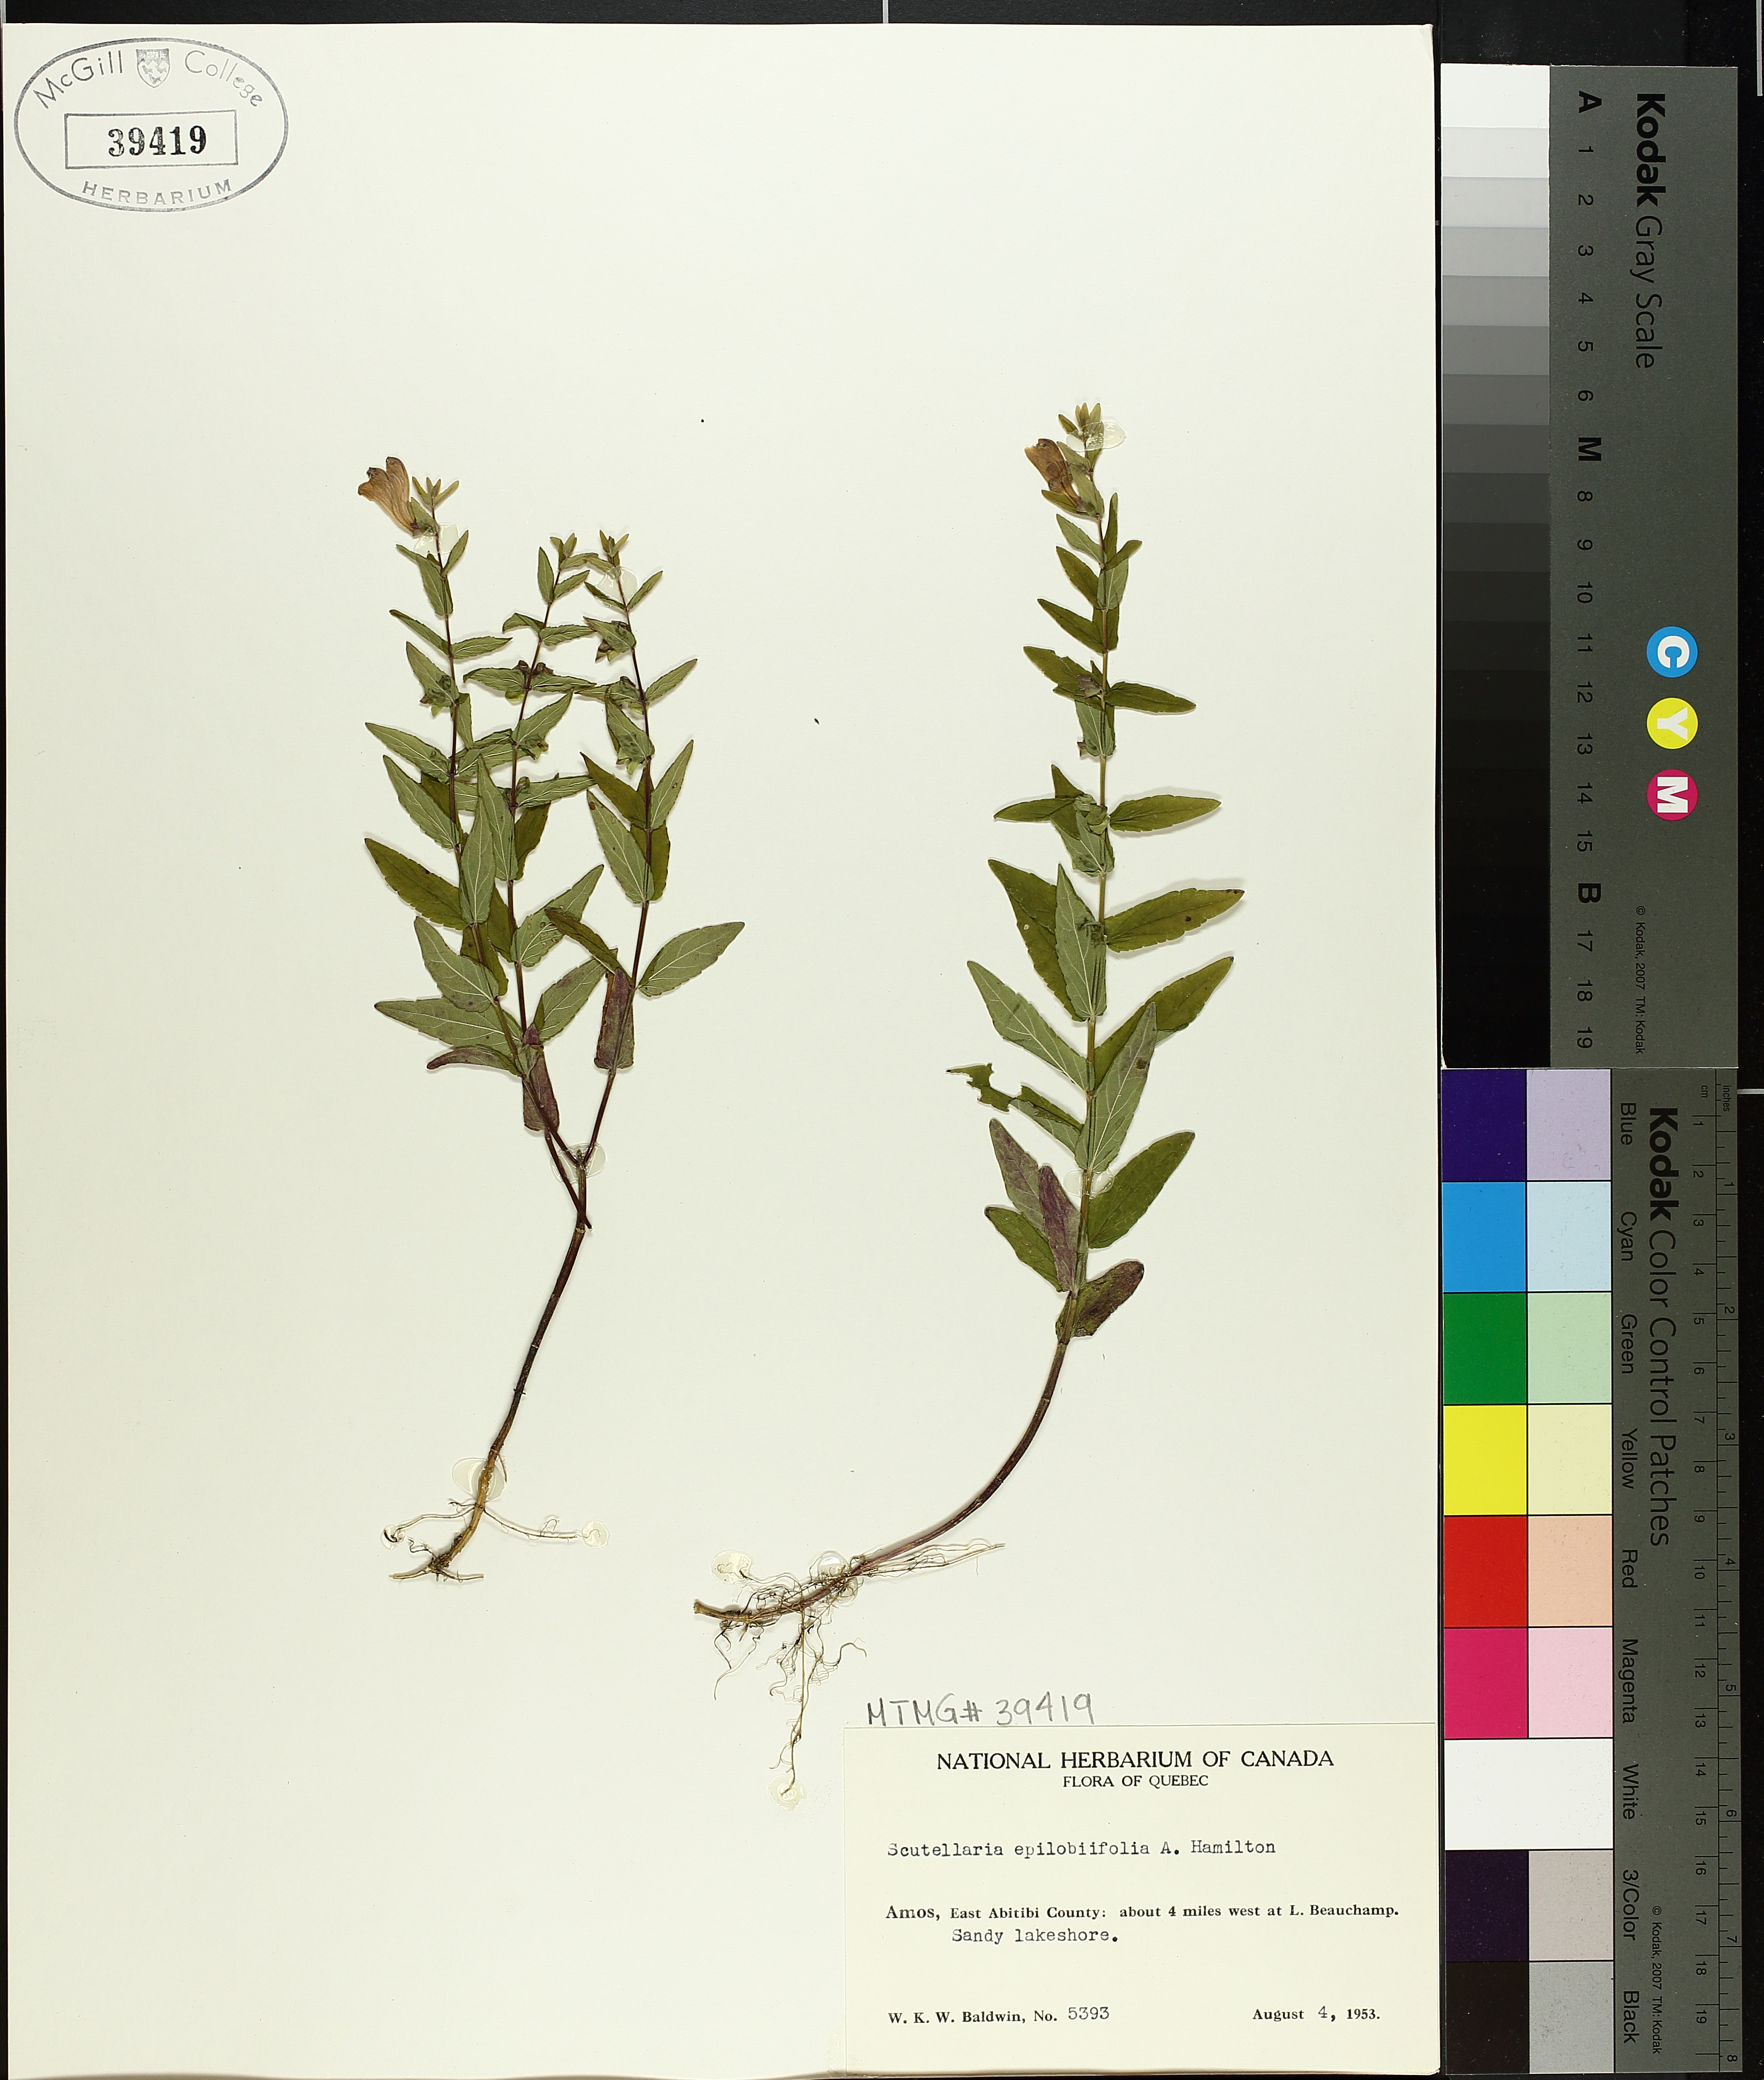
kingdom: Plantae
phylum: Tracheophyta
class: Magnoliopsida
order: Lamiales
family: Lamiaceae
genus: Scutellaria
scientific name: Scutellaria galericulata
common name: Skullcap
